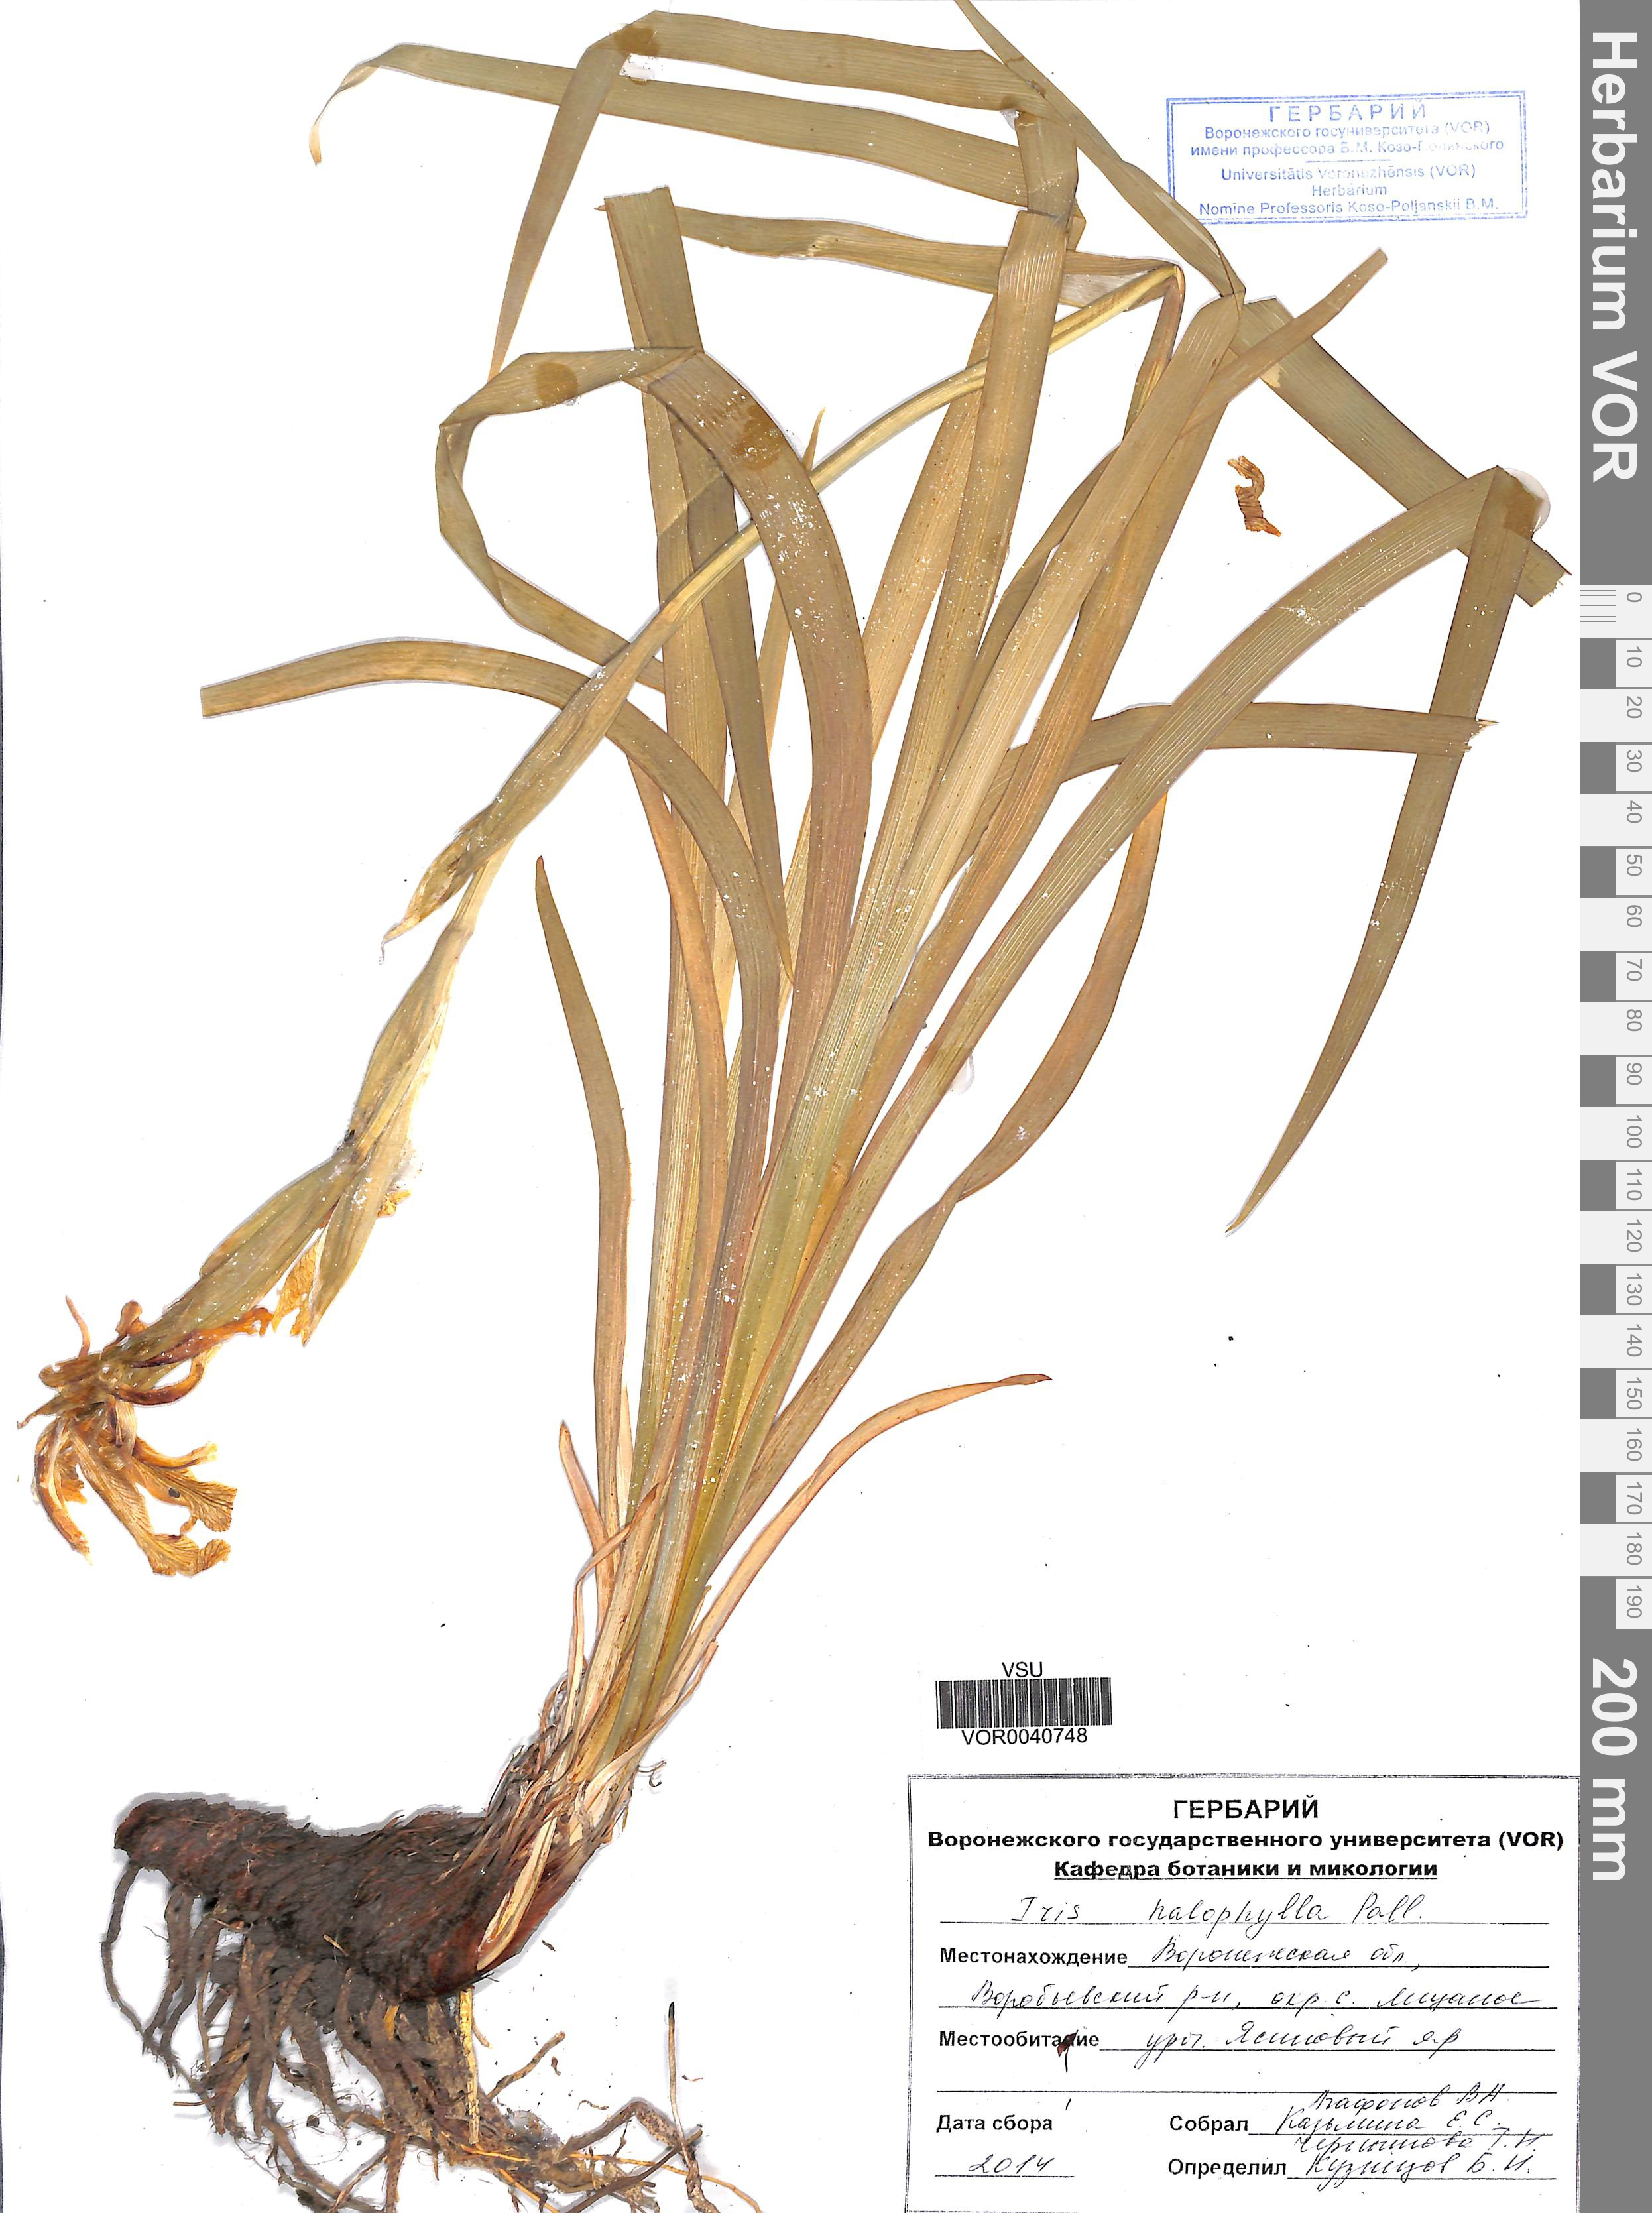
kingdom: Plantae
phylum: Tracheophyta
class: Liliopsida
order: Asparagales
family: Iridaceae
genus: Iris
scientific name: Iris halophila
